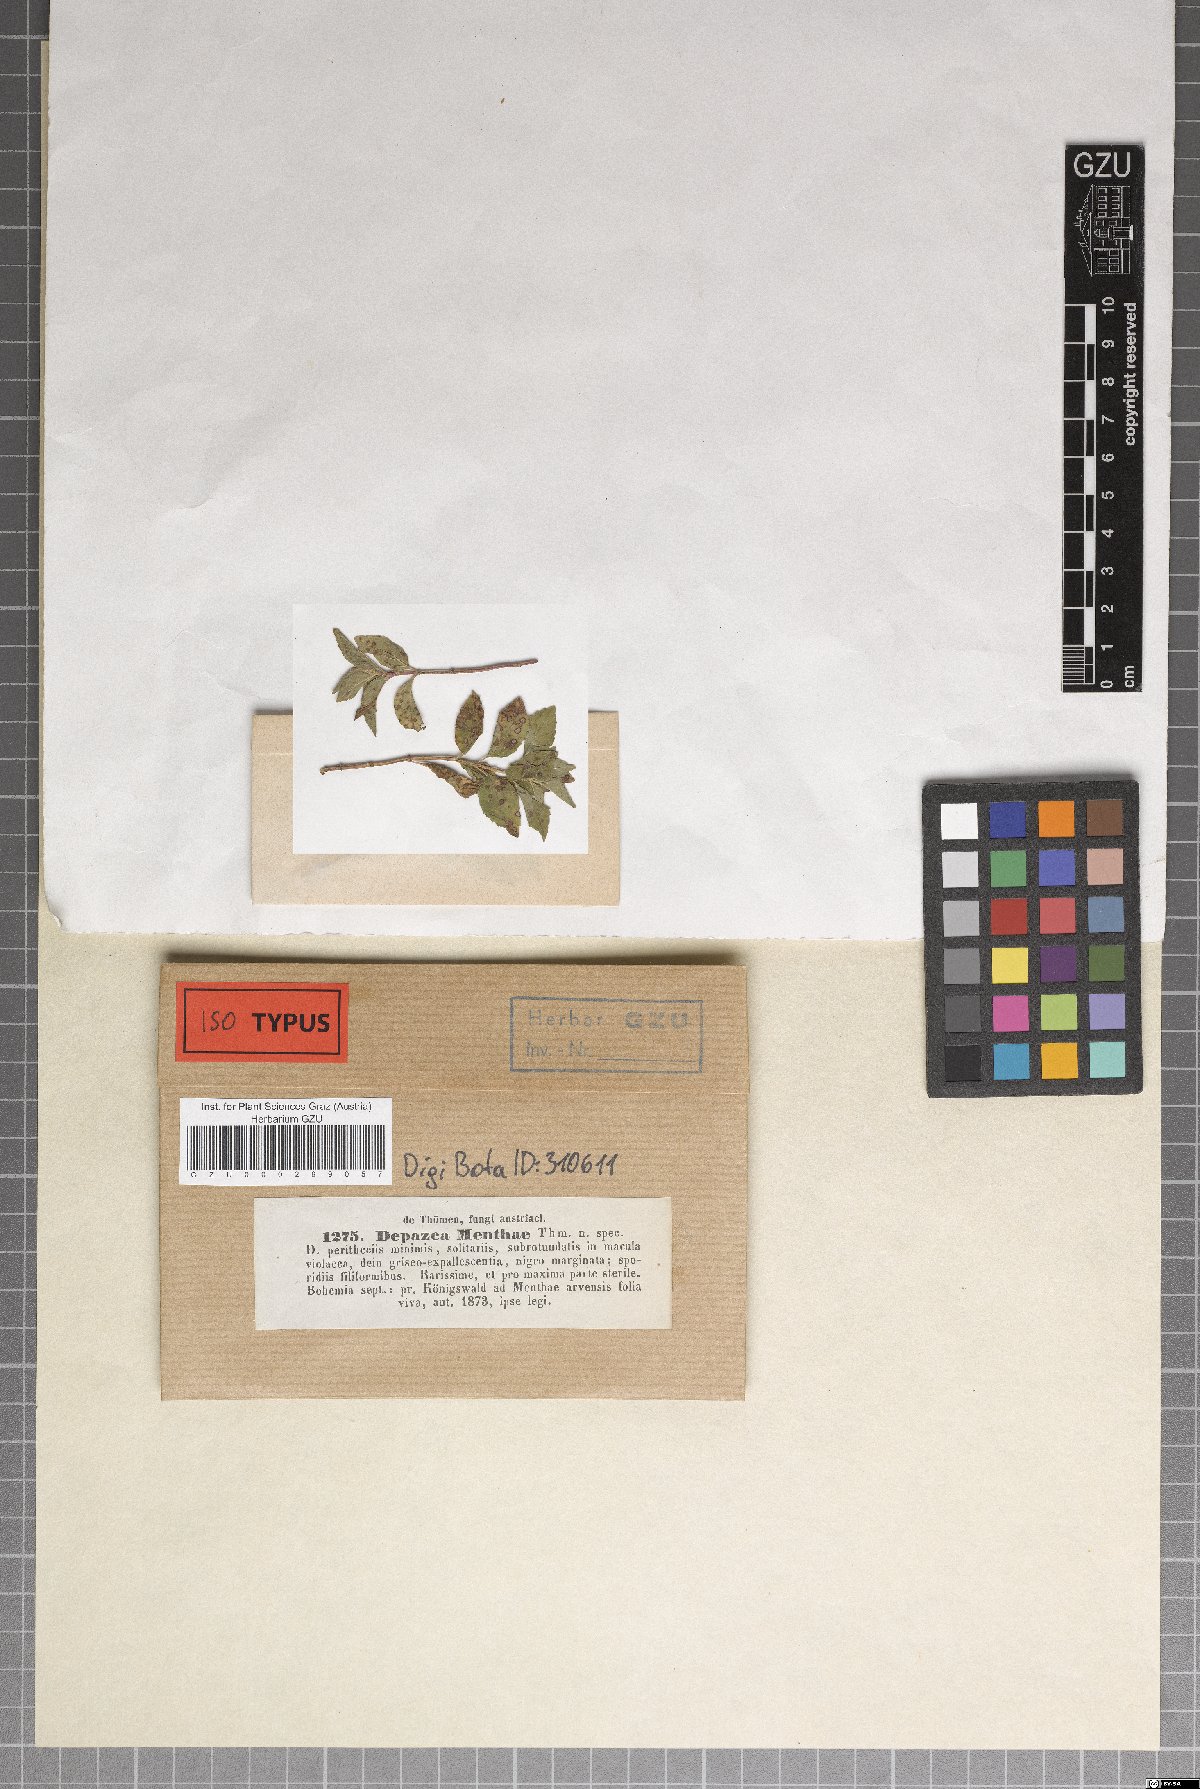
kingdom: Fungi
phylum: Ascomycota
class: Dothideomycetes
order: Mycosphaerellales
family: Mycosphaerellaceae
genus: Septoria
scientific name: Septoria menthae
